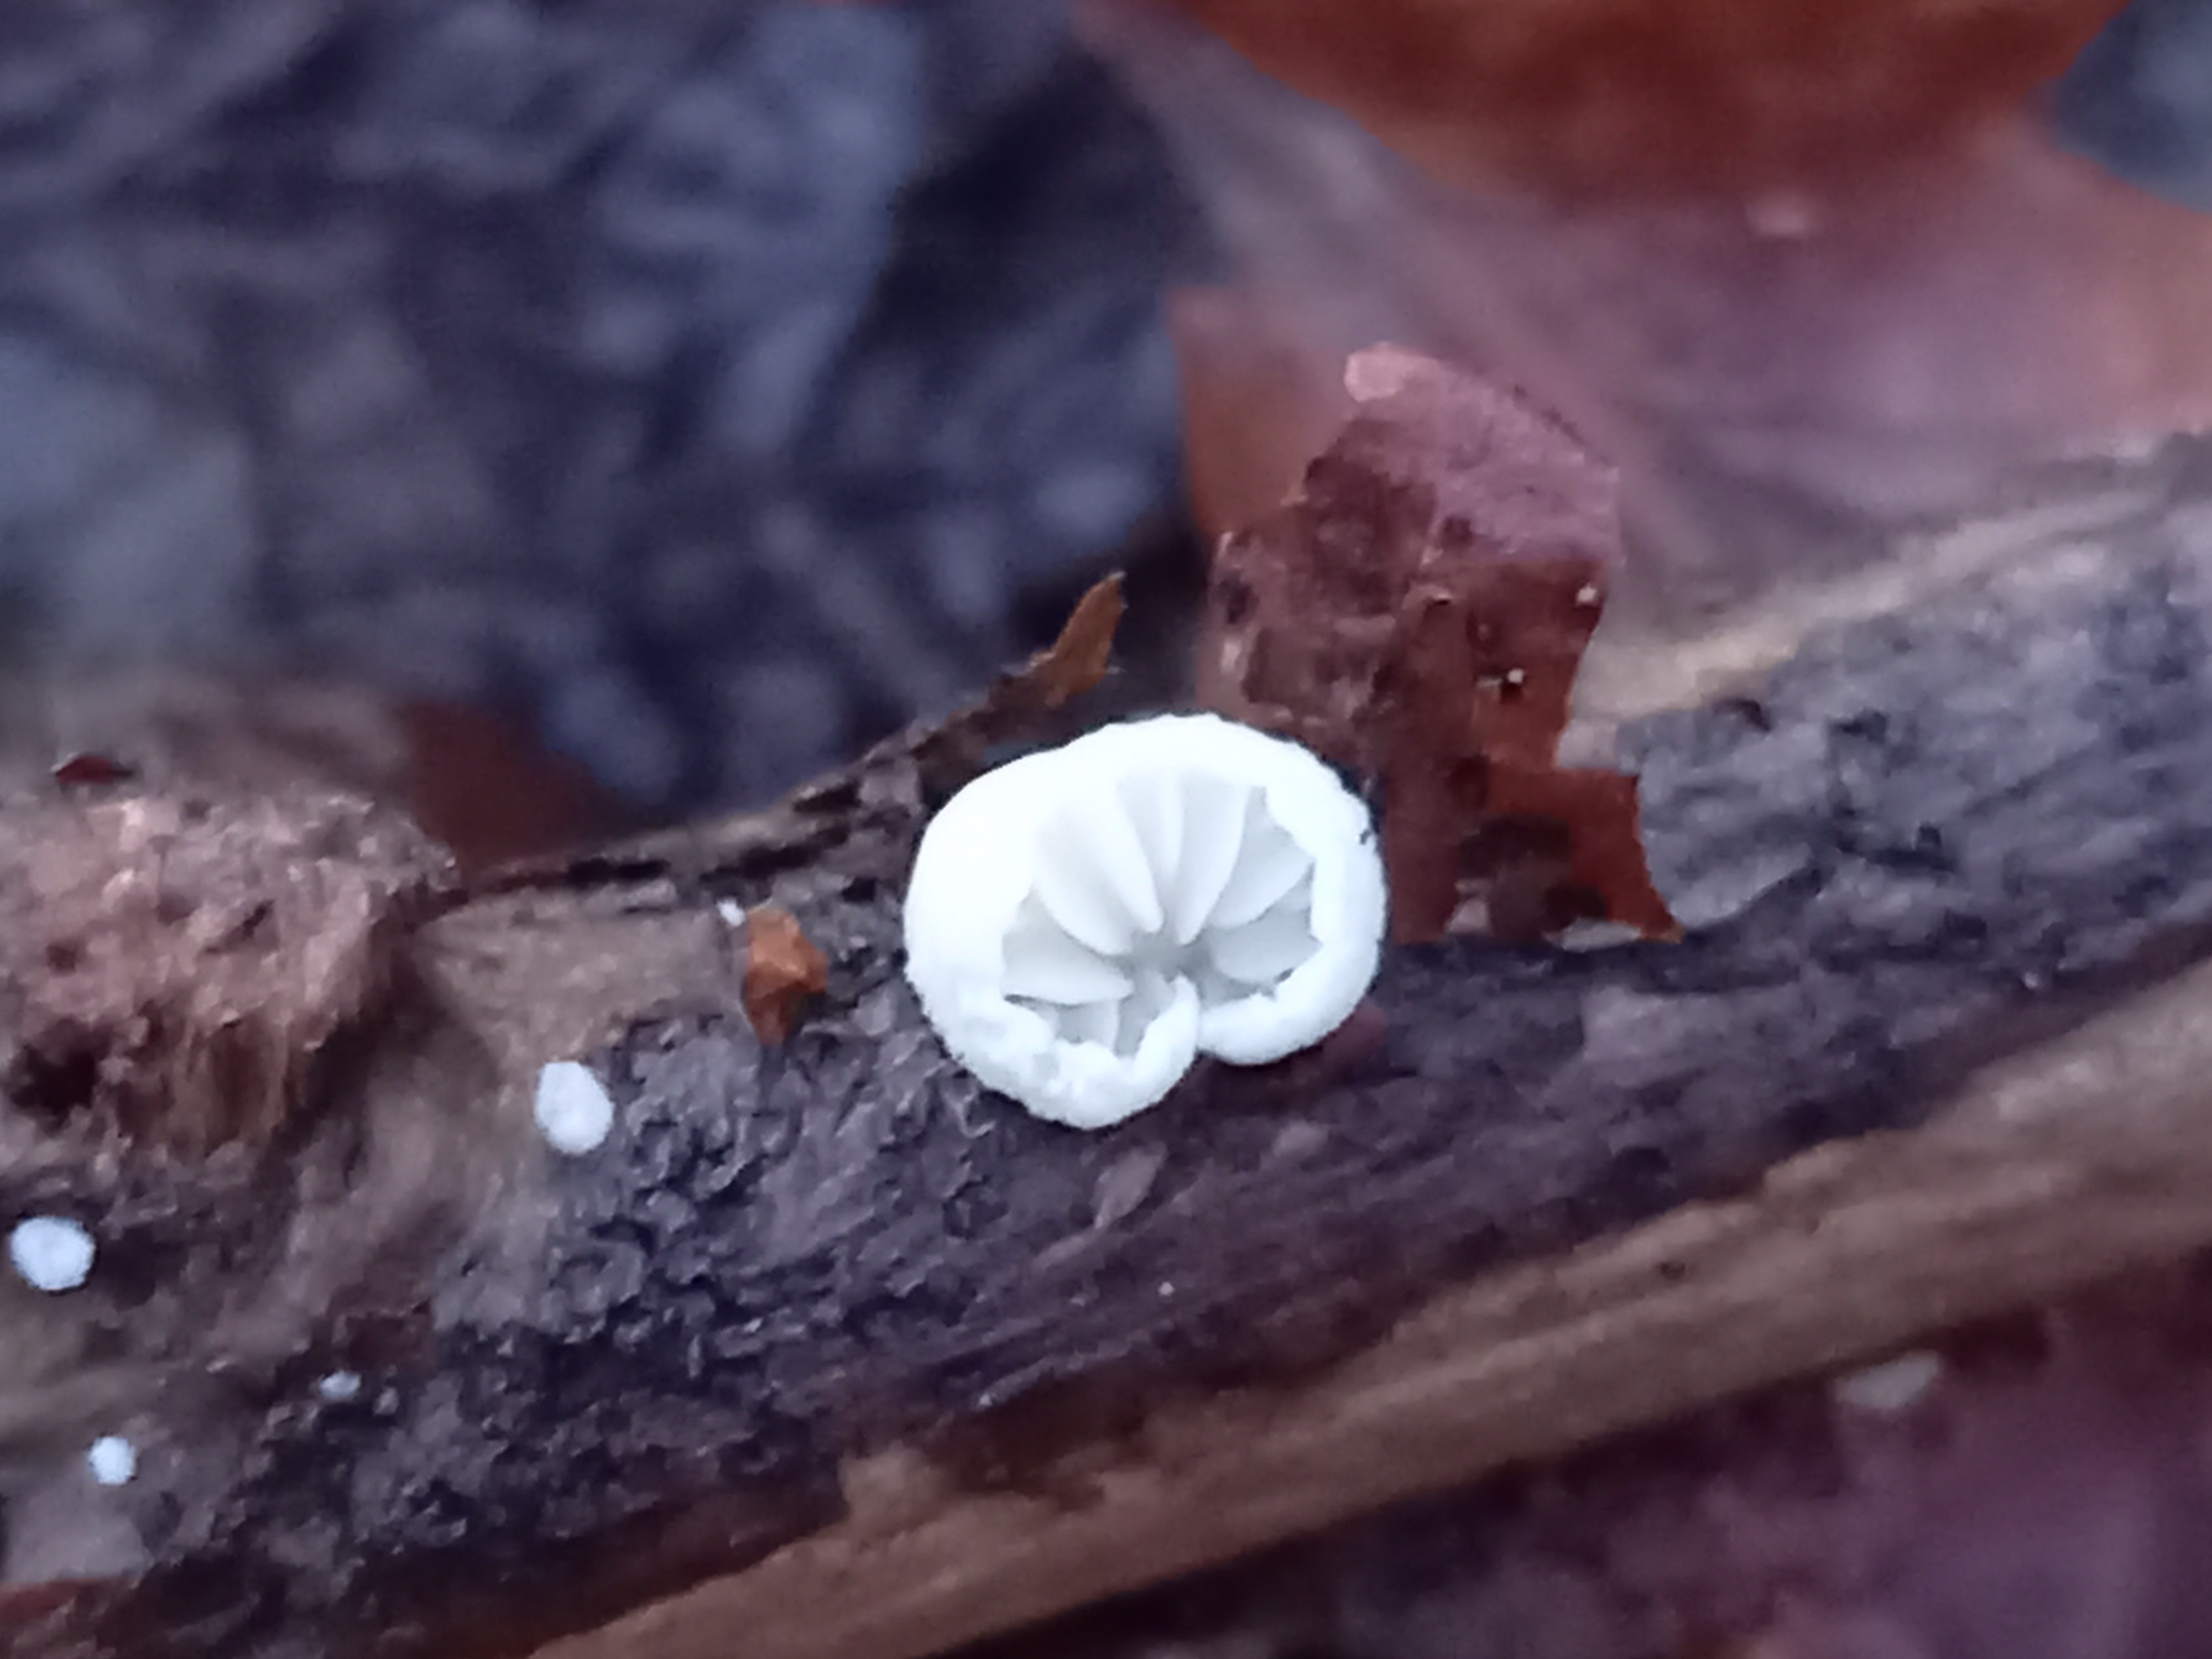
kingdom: Fungi
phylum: Basidiomycota
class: Agaricomycetes
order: Agaricales
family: Entolomataceae
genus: Clitopilus
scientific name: Clitopilus hobsonii
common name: Miller's oysterling
